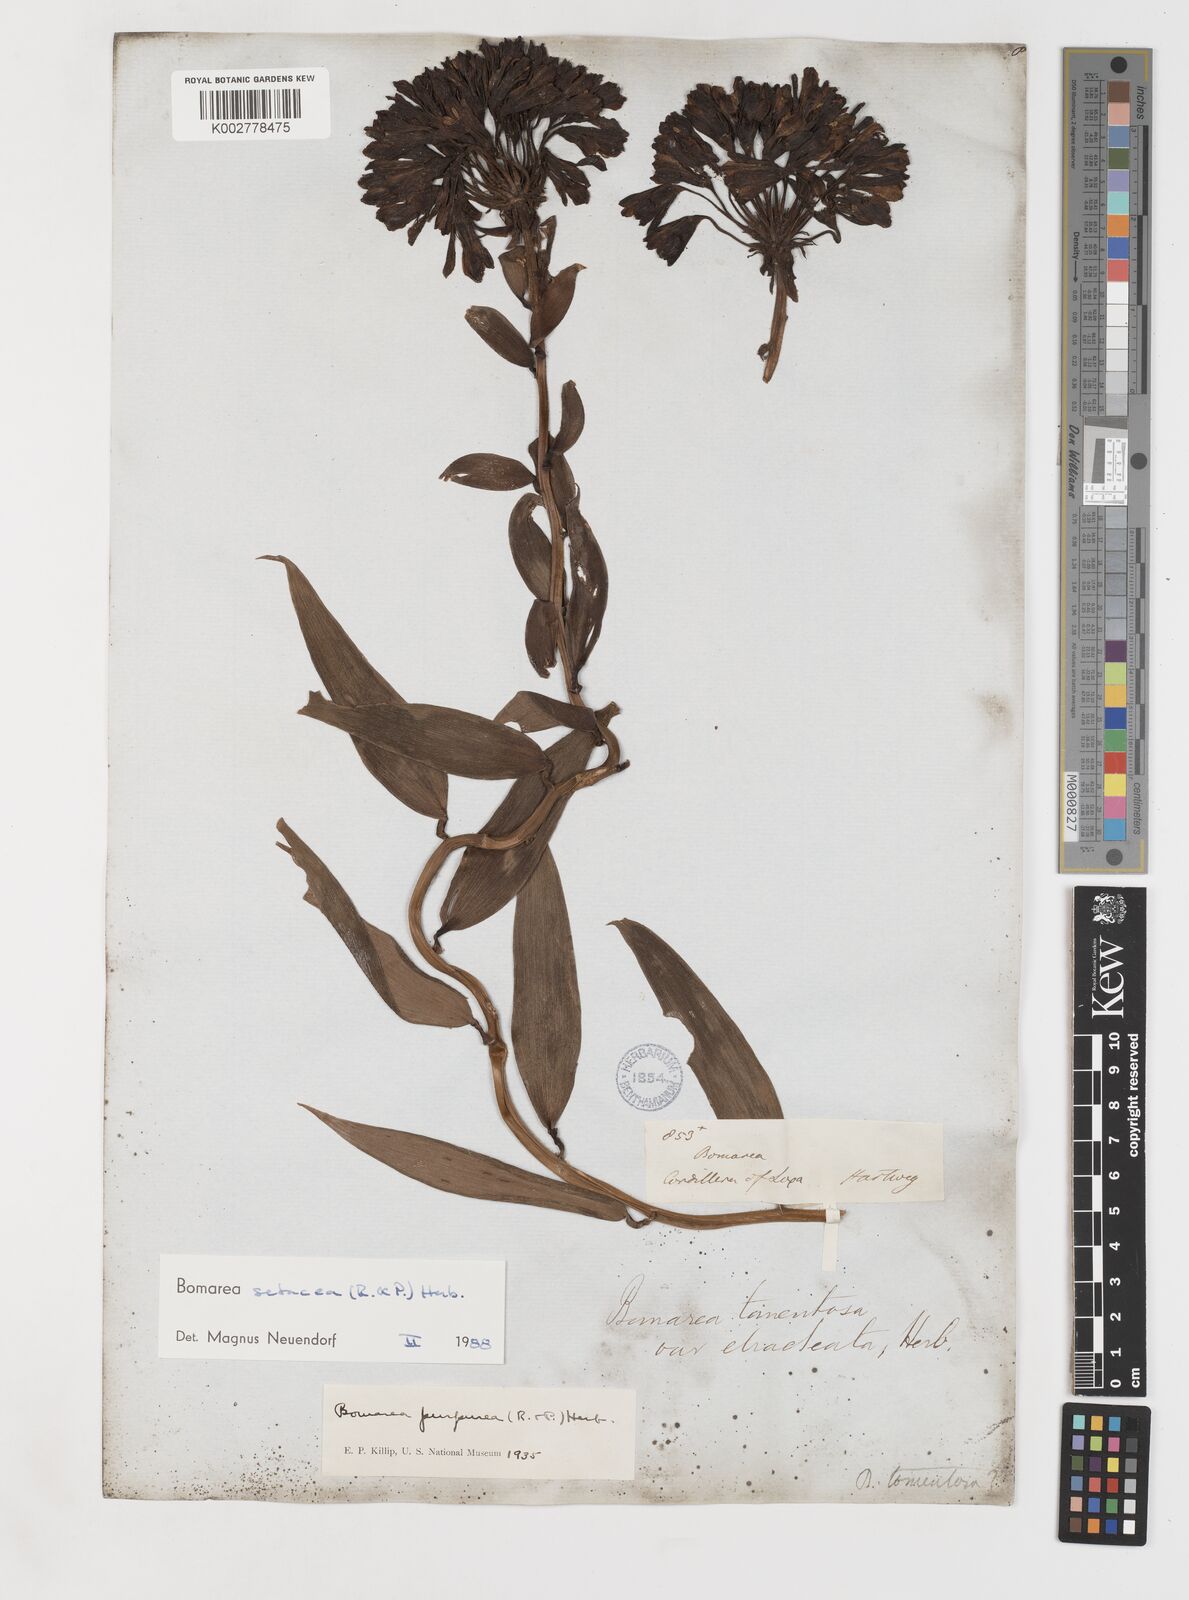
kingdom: Plantae
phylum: Tracheophyta
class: Liliopsida
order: Liliales
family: Alstroemeriaceae
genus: Bomarea
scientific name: Bomarea setacea
